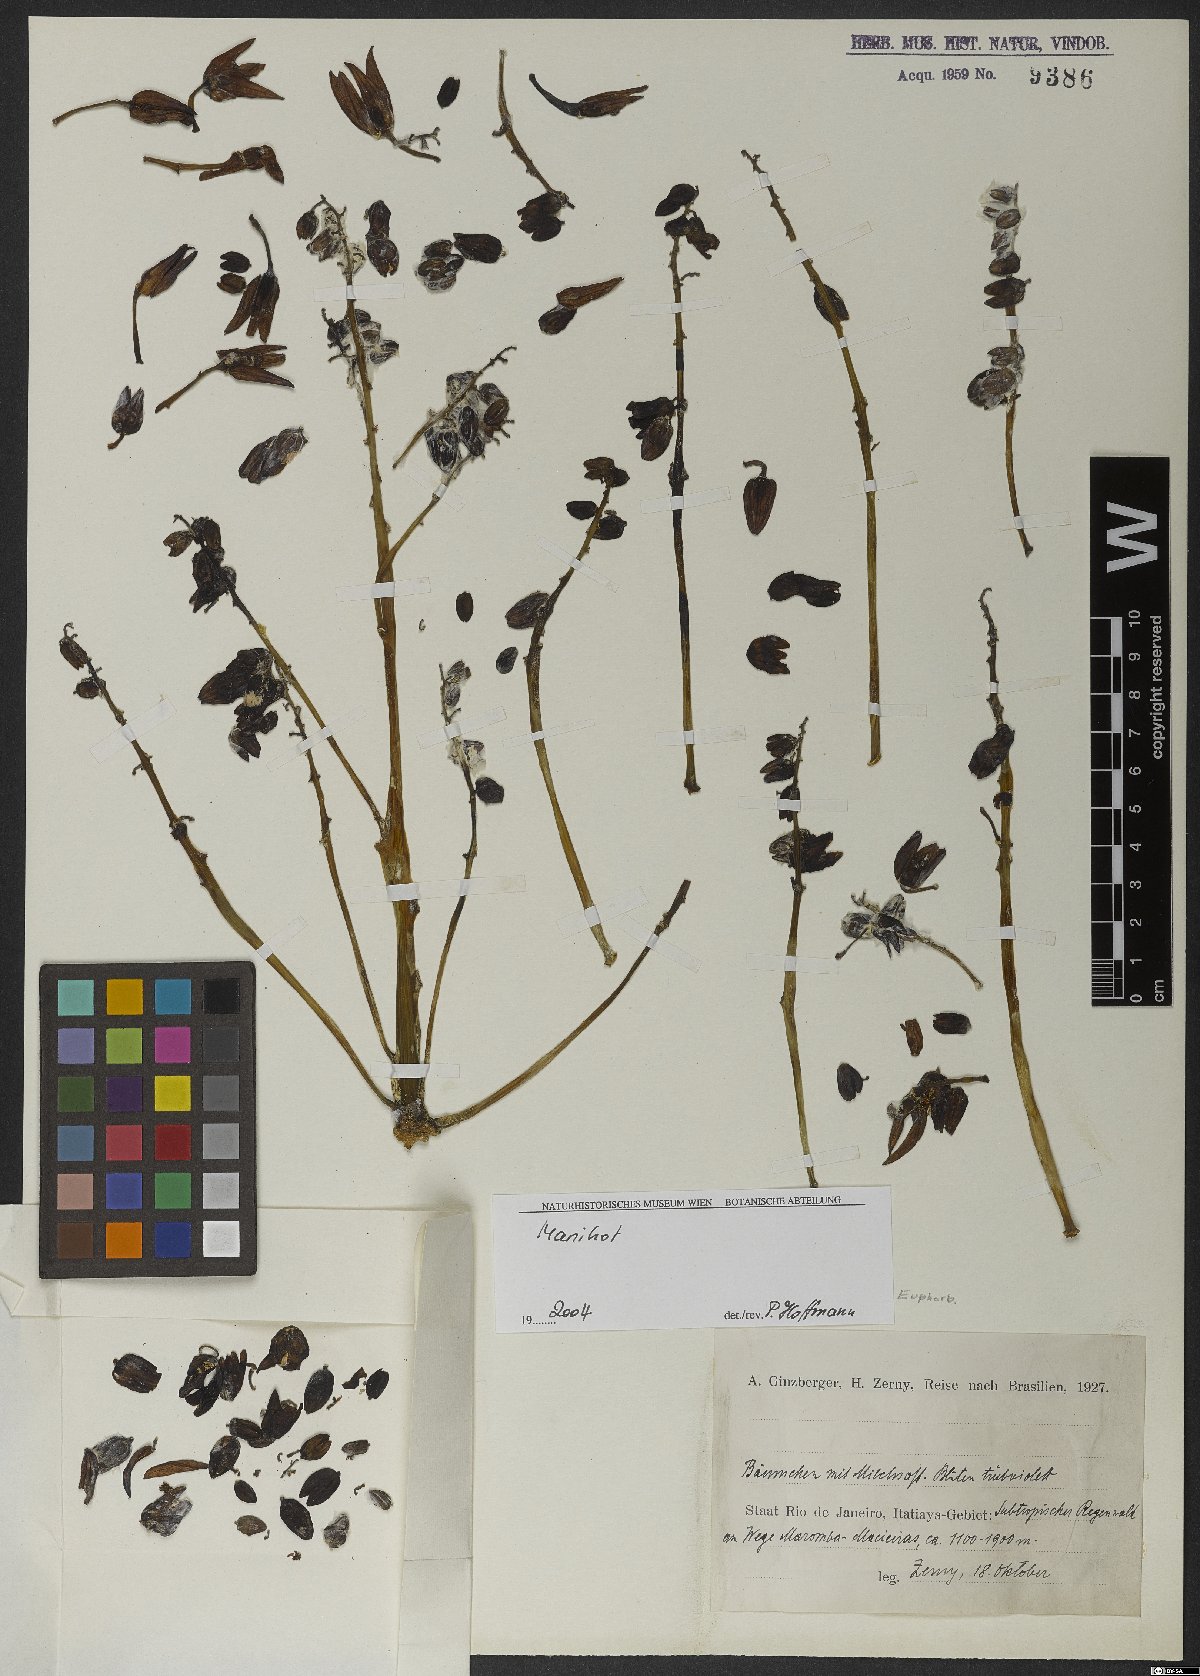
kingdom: Plantae
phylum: Tracheophyta
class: Magnoliopsida
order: Malpighiales
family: Euphorbiaceae
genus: Manihot
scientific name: Manihot
